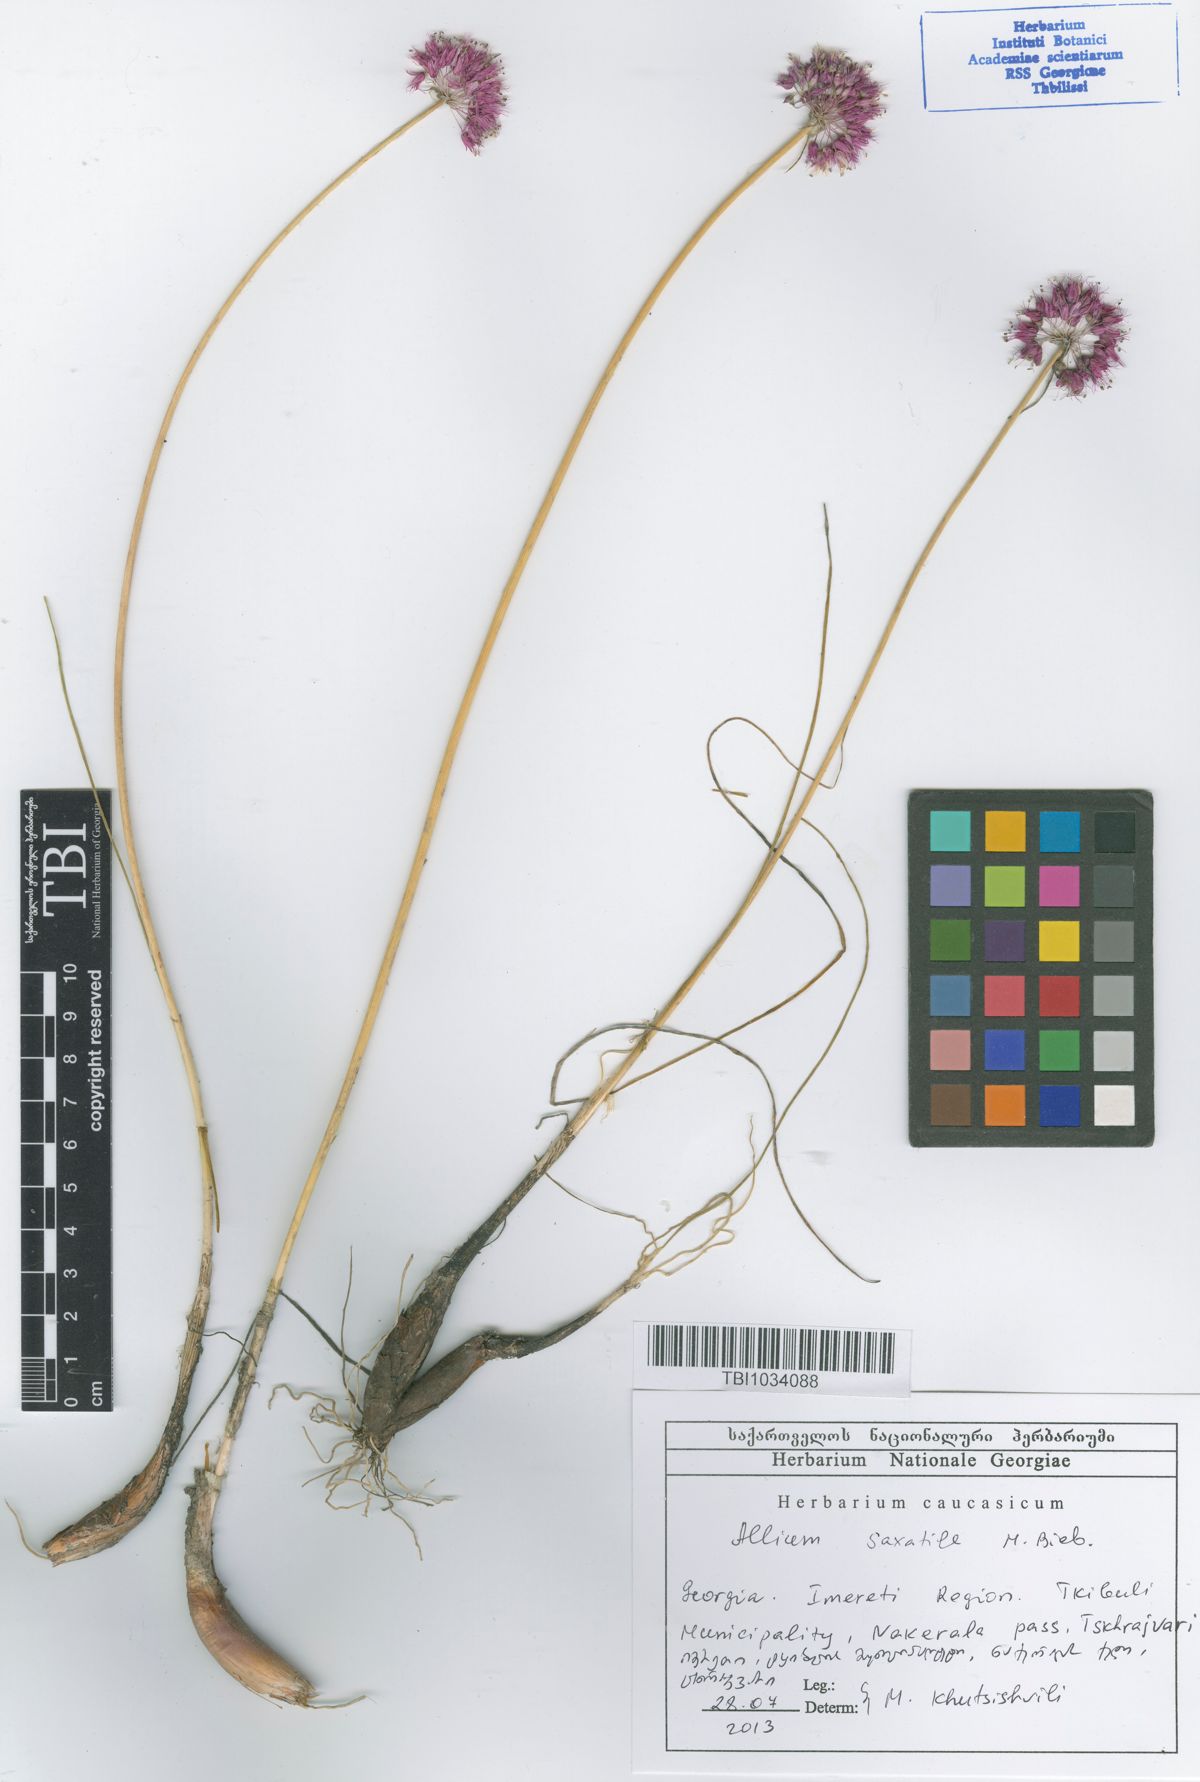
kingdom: Plantae
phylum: Tracheophyta
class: Liliopsida
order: Asparagales
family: Amaryllidaceae
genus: Allium
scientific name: Allium saxatile
